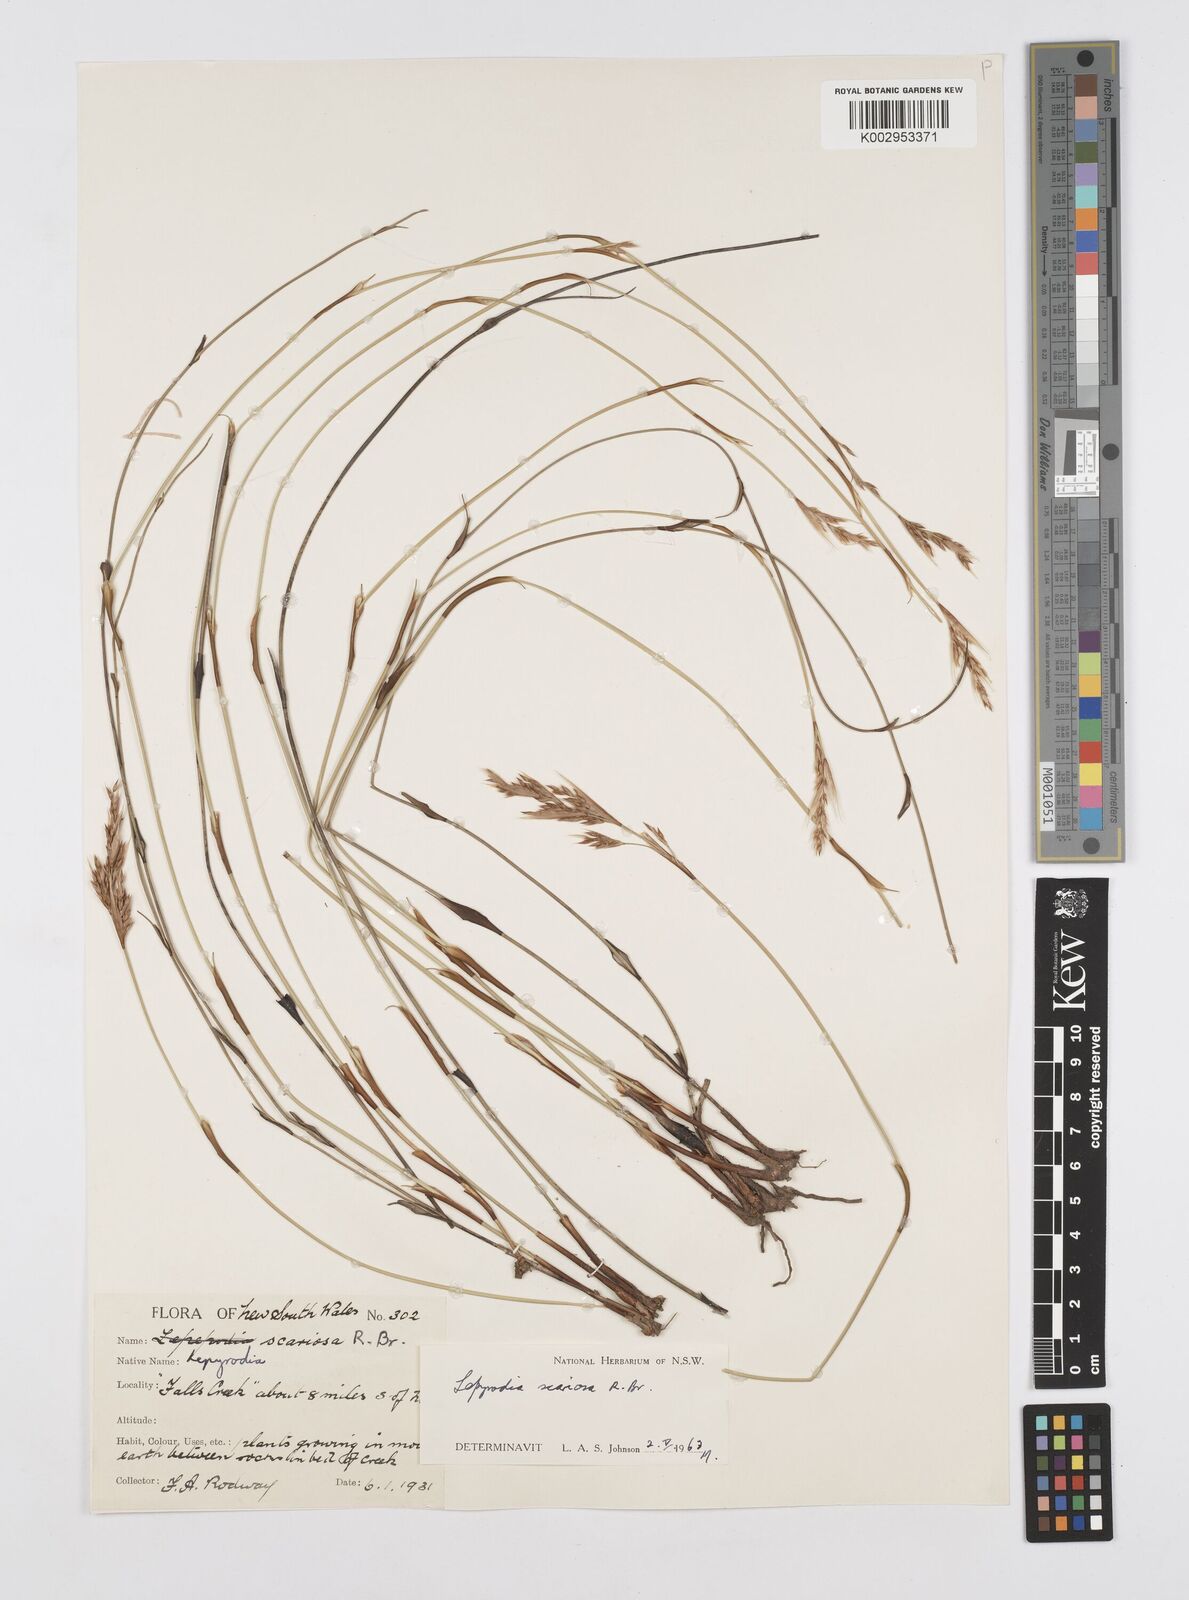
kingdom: Plantae
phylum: Tracheophyta
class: Liliopsida
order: Poales
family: Restionaceae
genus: Lepyrodia
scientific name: Lepyrodia scariosa
